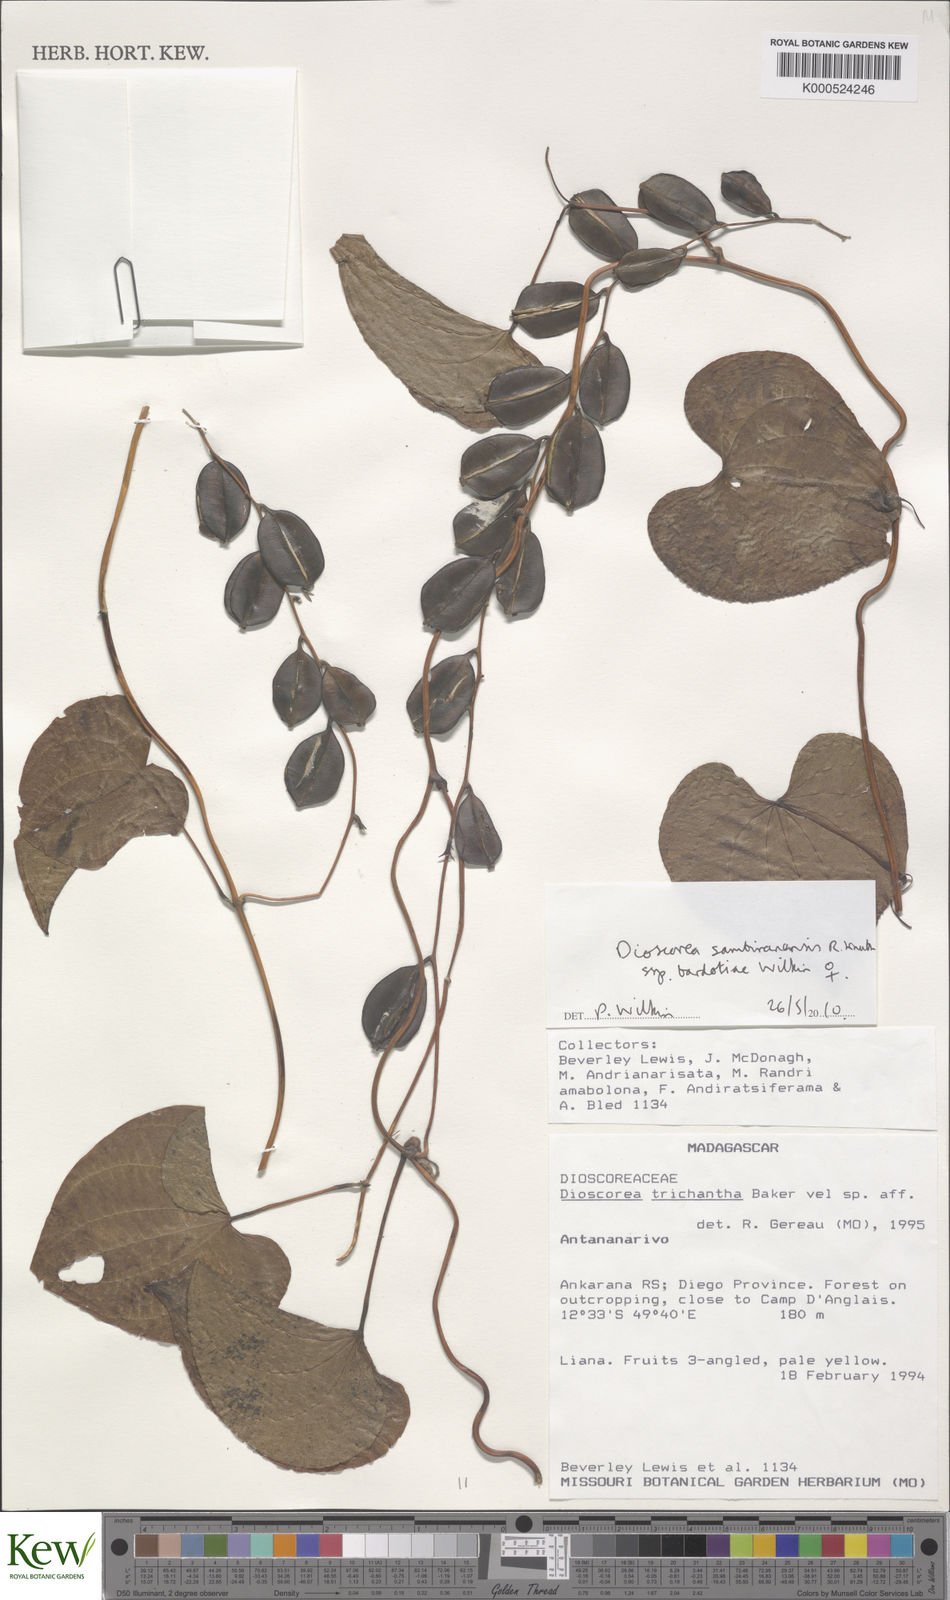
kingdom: Plantae
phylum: Tracheophyta
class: Liliopsida
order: Dioscoreales
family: Dioscoreaceae
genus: Dioscorea
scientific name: Dioscorea sambiranensis
